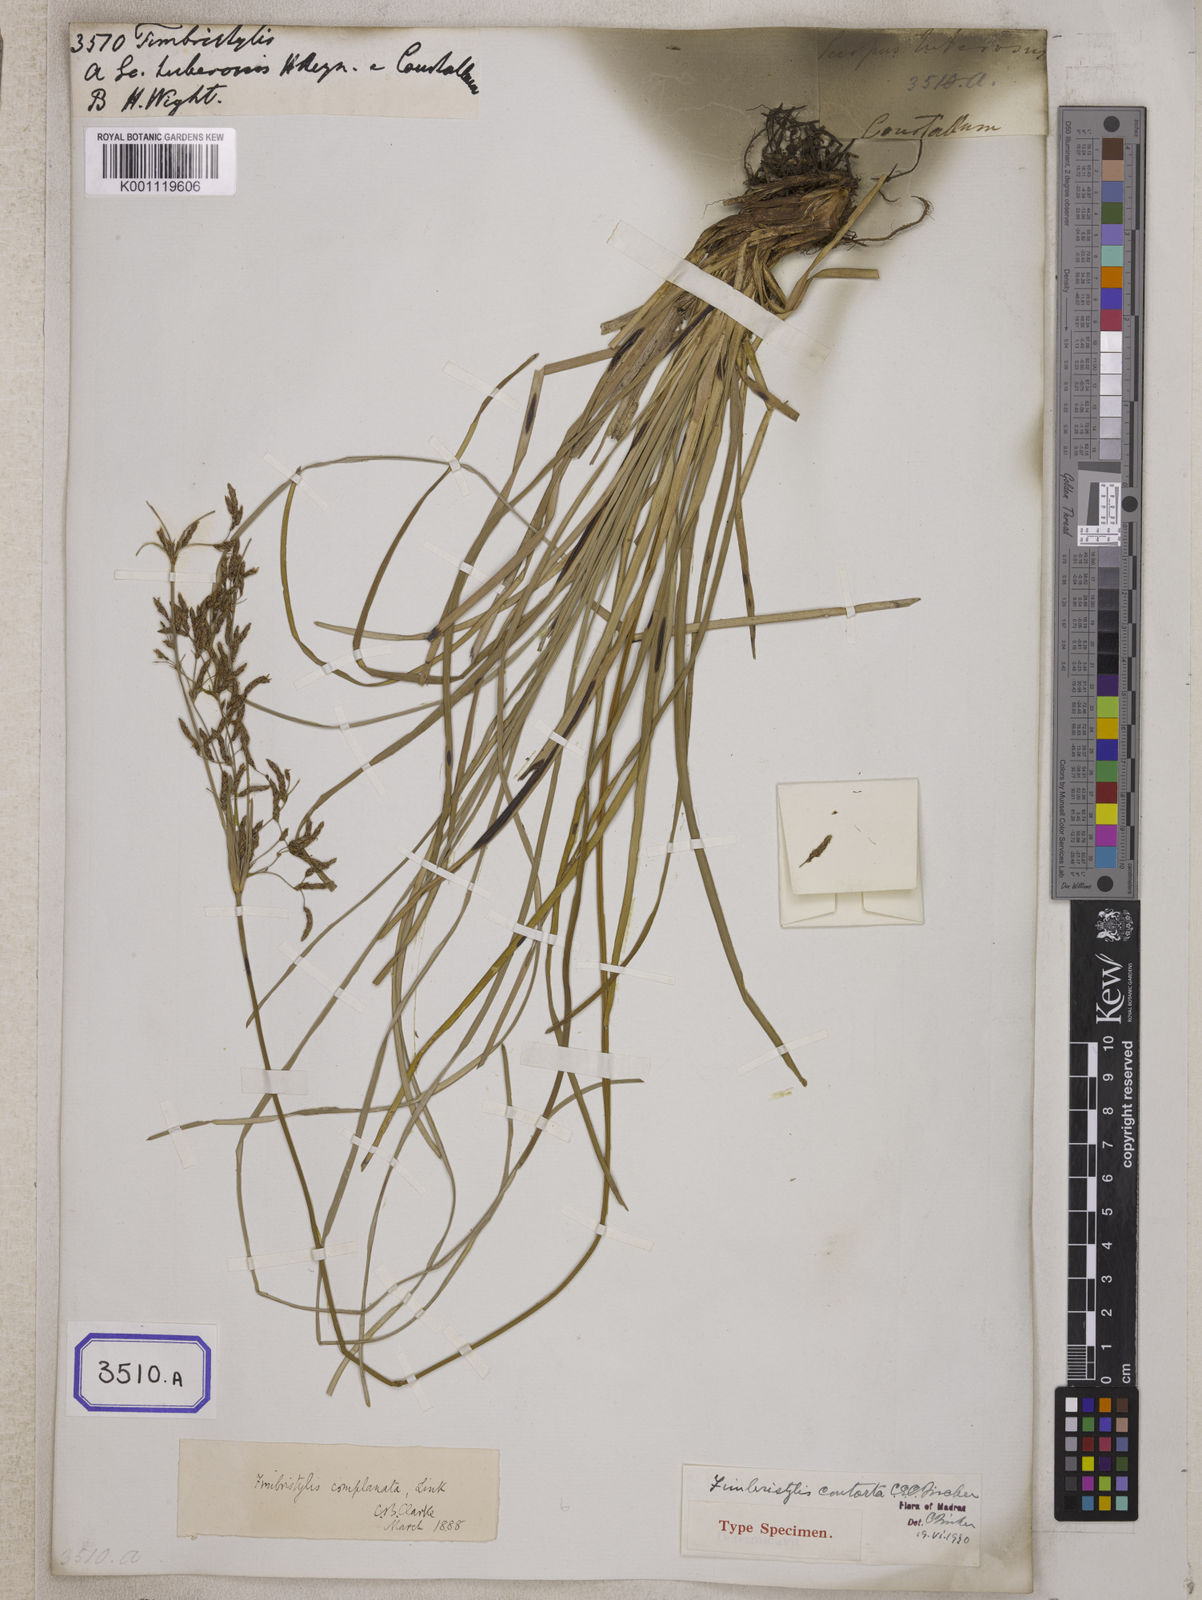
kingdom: Plantae
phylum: Tracheophyta
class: Liliopsida
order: Poales
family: Cyperaceae
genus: Fimbristylis
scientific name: Fimbristylis
